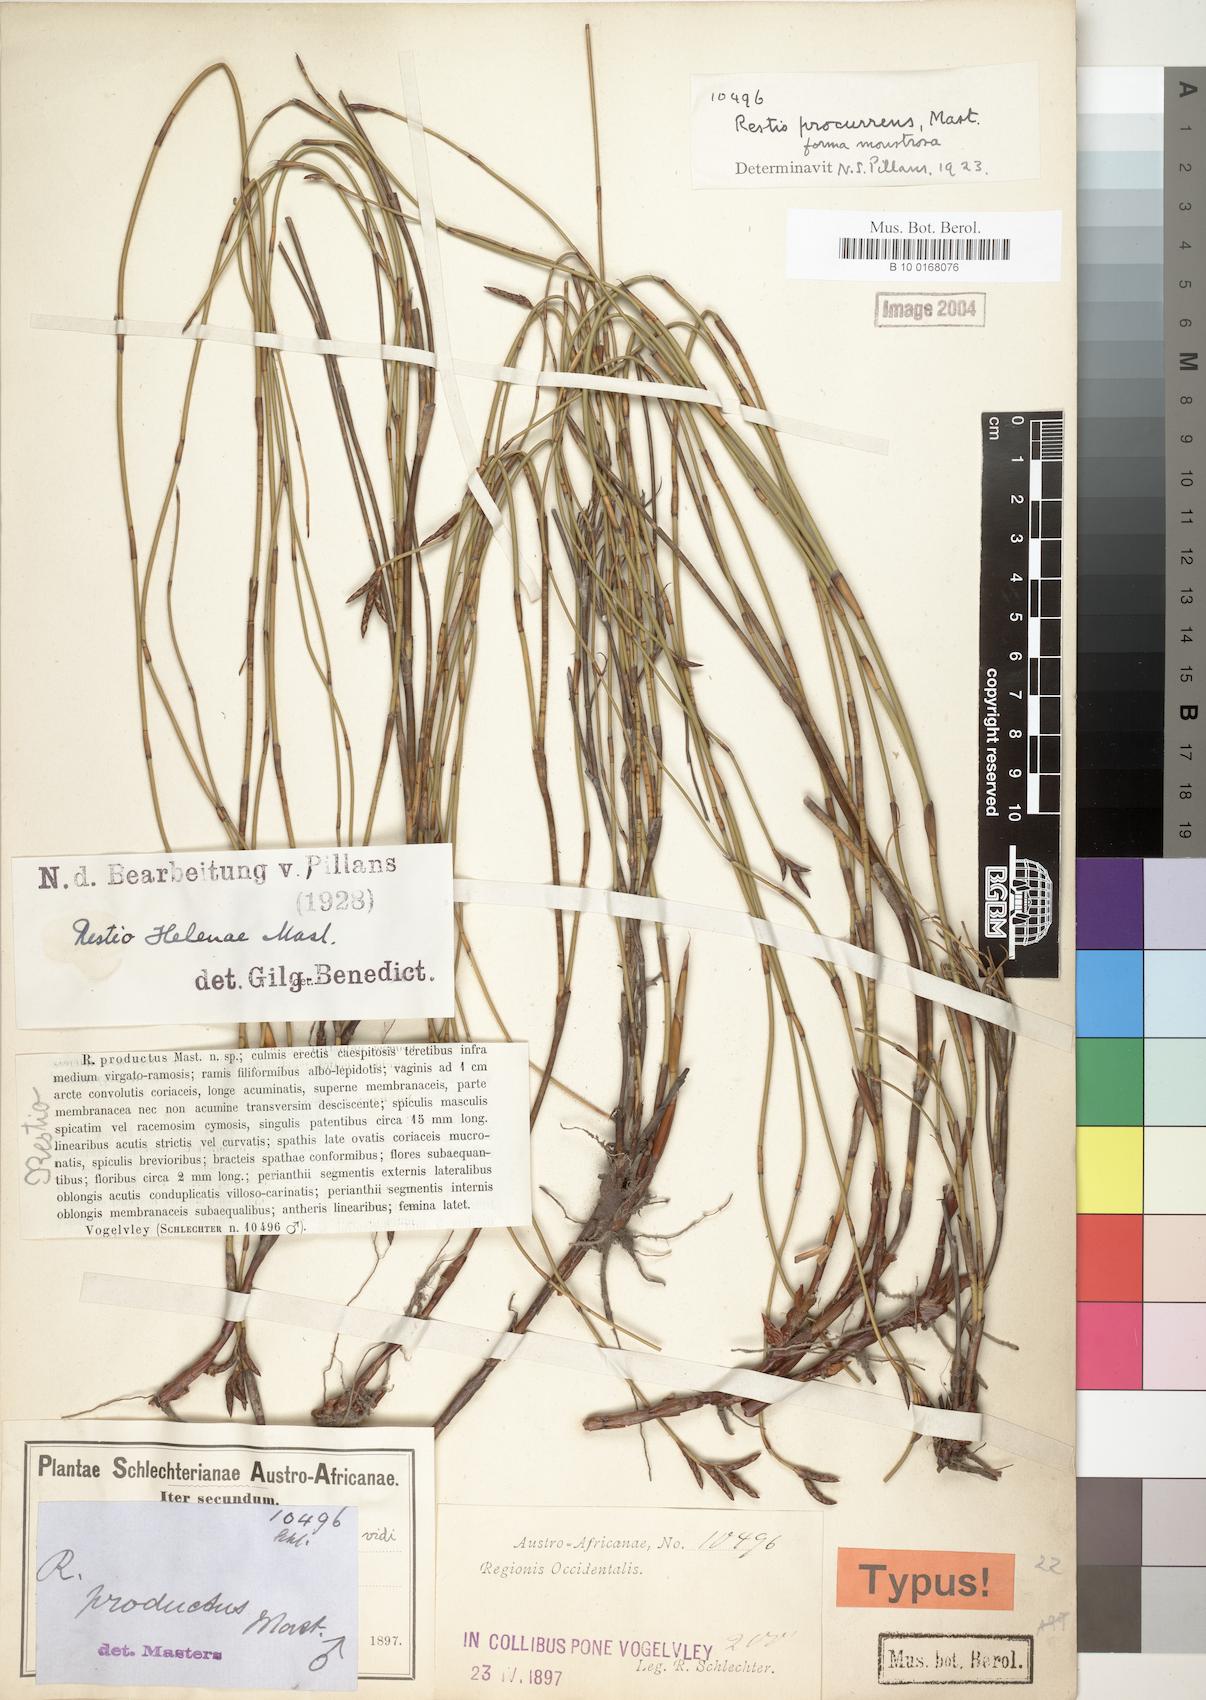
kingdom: Plantae
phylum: Tracheophyta
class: Liliopsida
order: Poales
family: Restionaceae
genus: Restio
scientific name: Restio helenae
